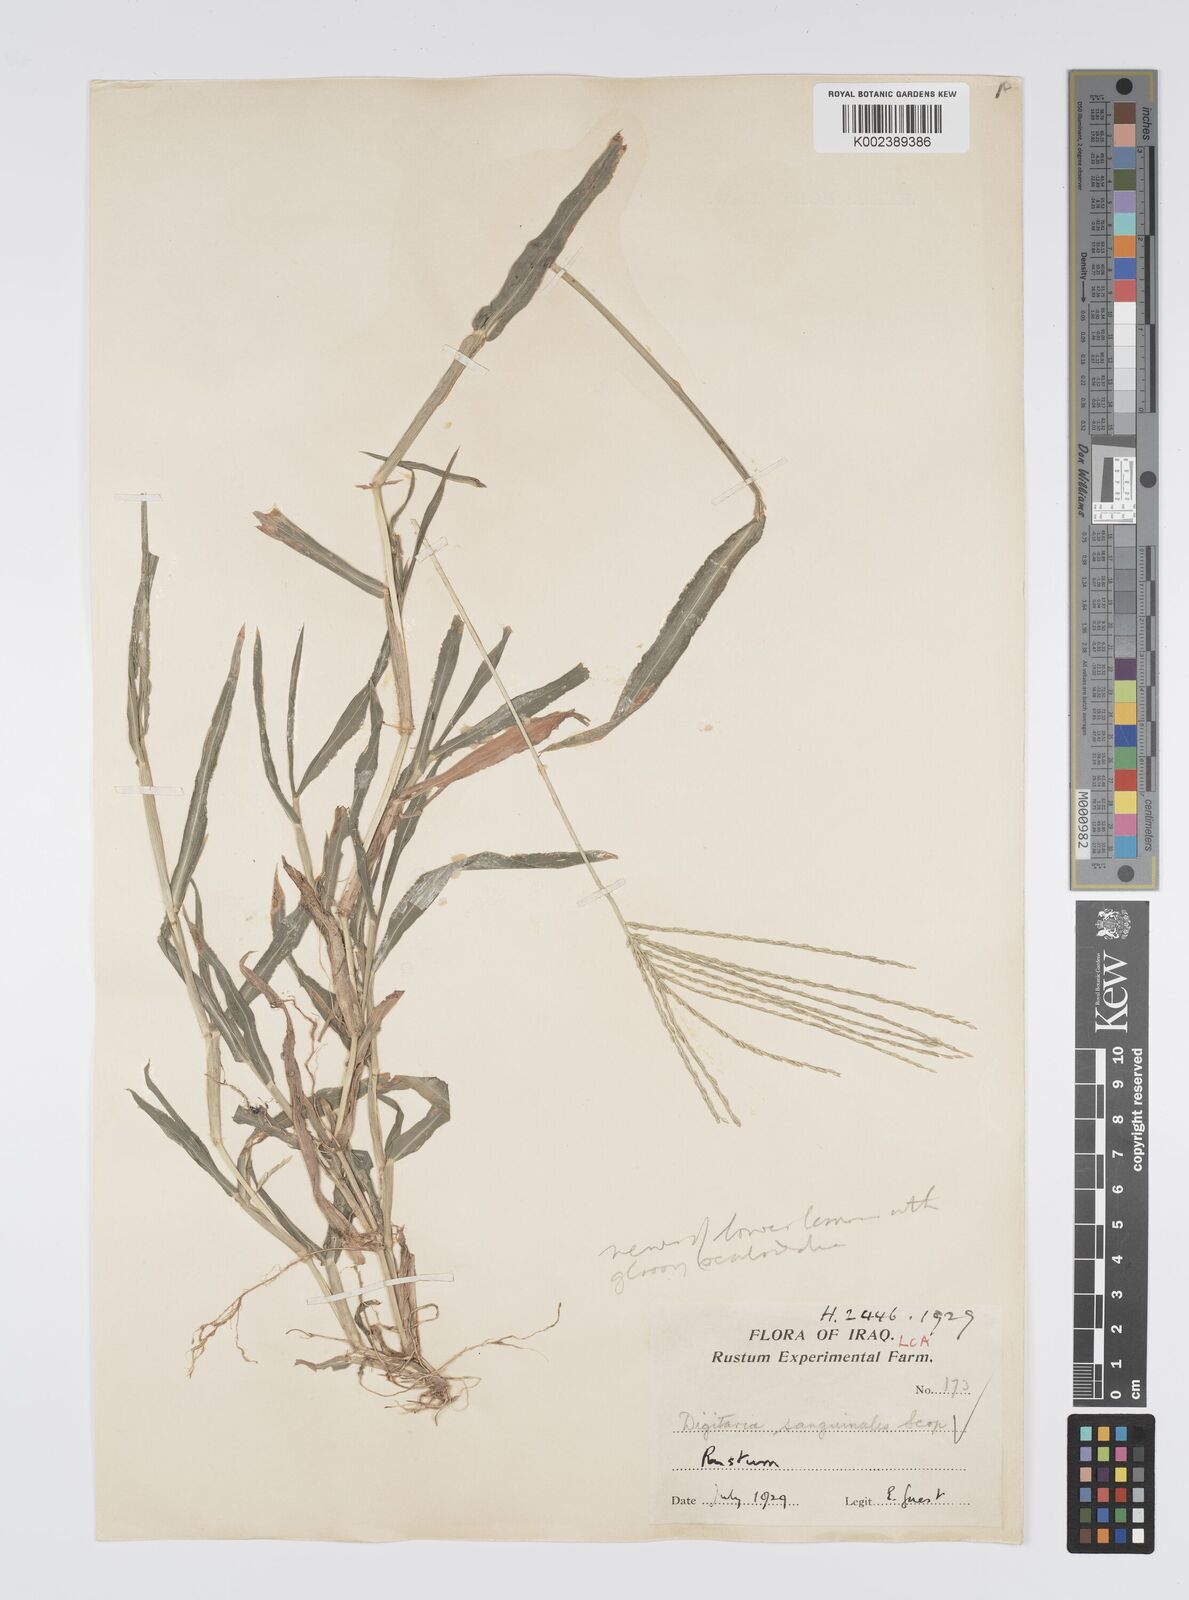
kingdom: Plantae
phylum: Tracheophyta
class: Liliopsida
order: Poales
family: Poaceae
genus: Digitaria
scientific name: Digitaria sanguinalis
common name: Hairy crabgrass
